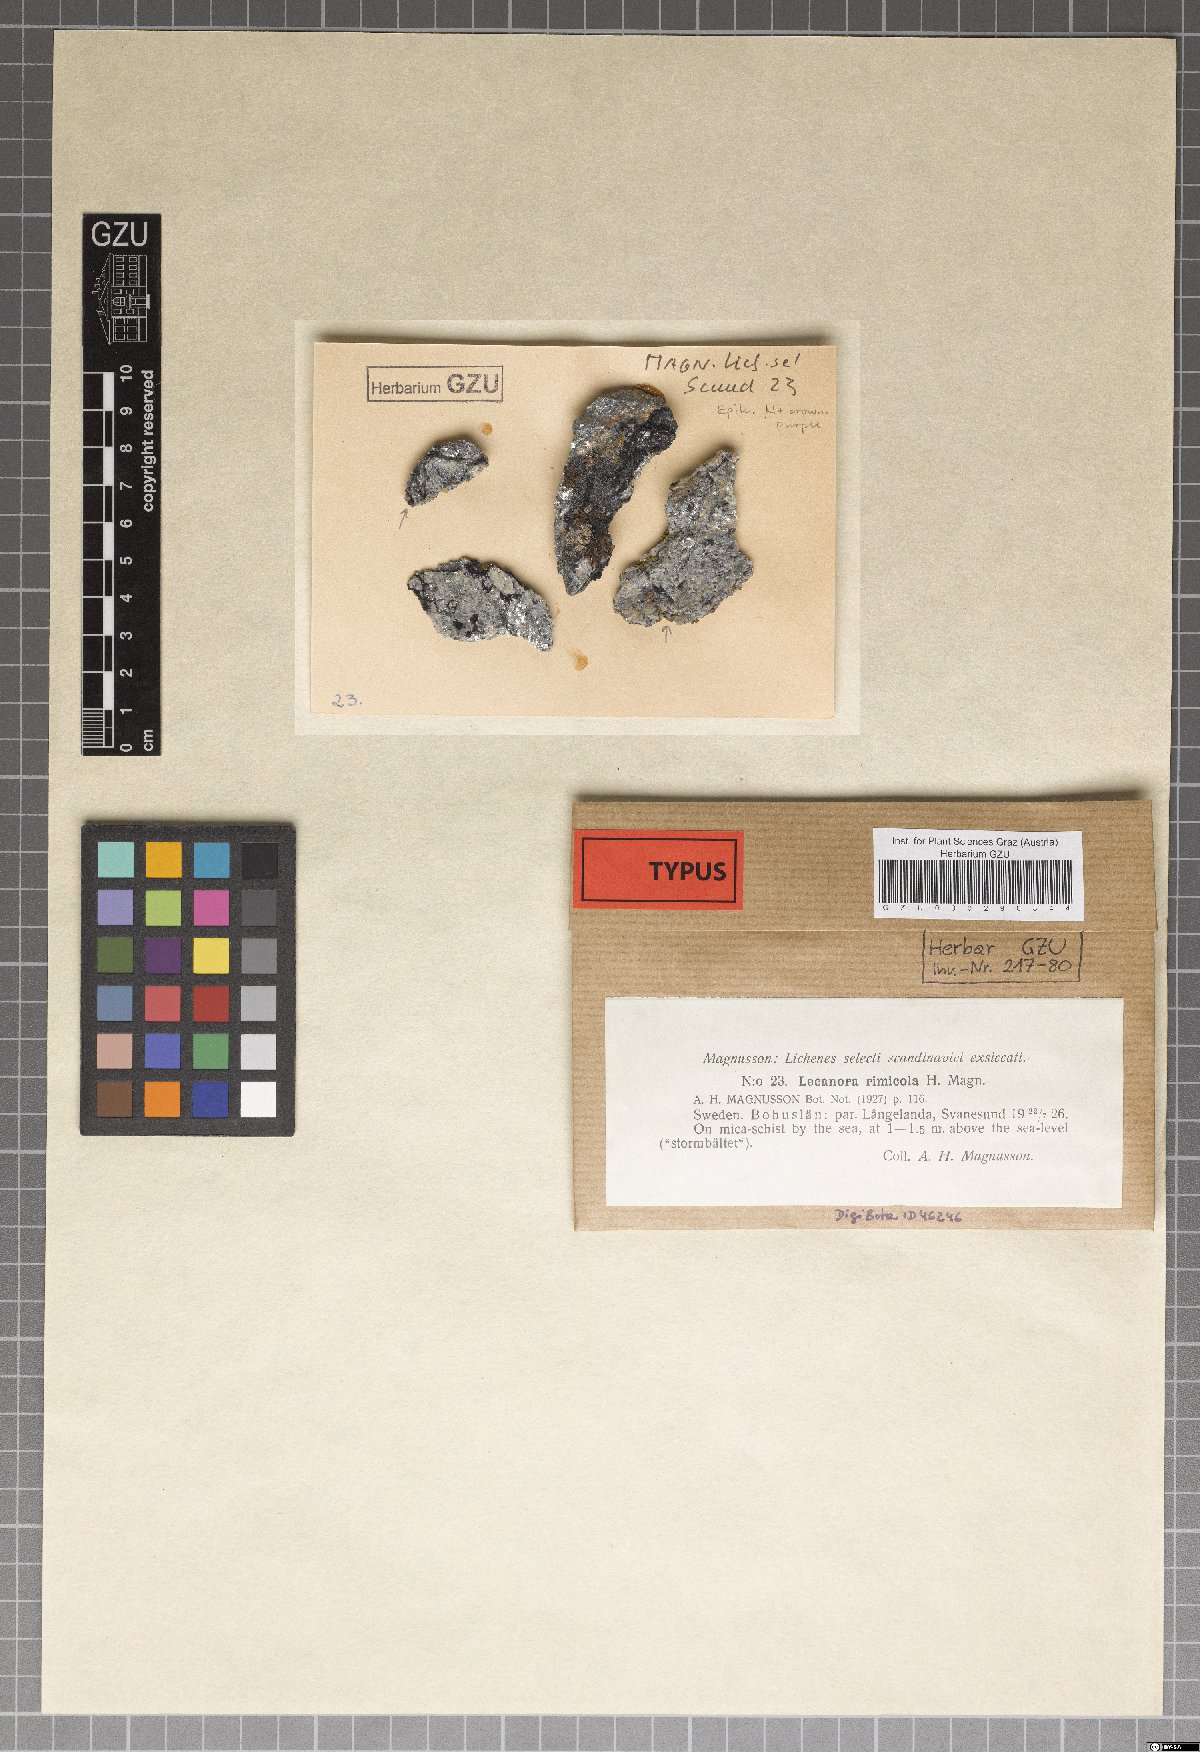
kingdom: Fungi
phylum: Ascomycota
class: Lecanoromycetes
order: Lecanorales
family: Lecanoraceae
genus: Lecanora
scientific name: Lecanora rimicola
